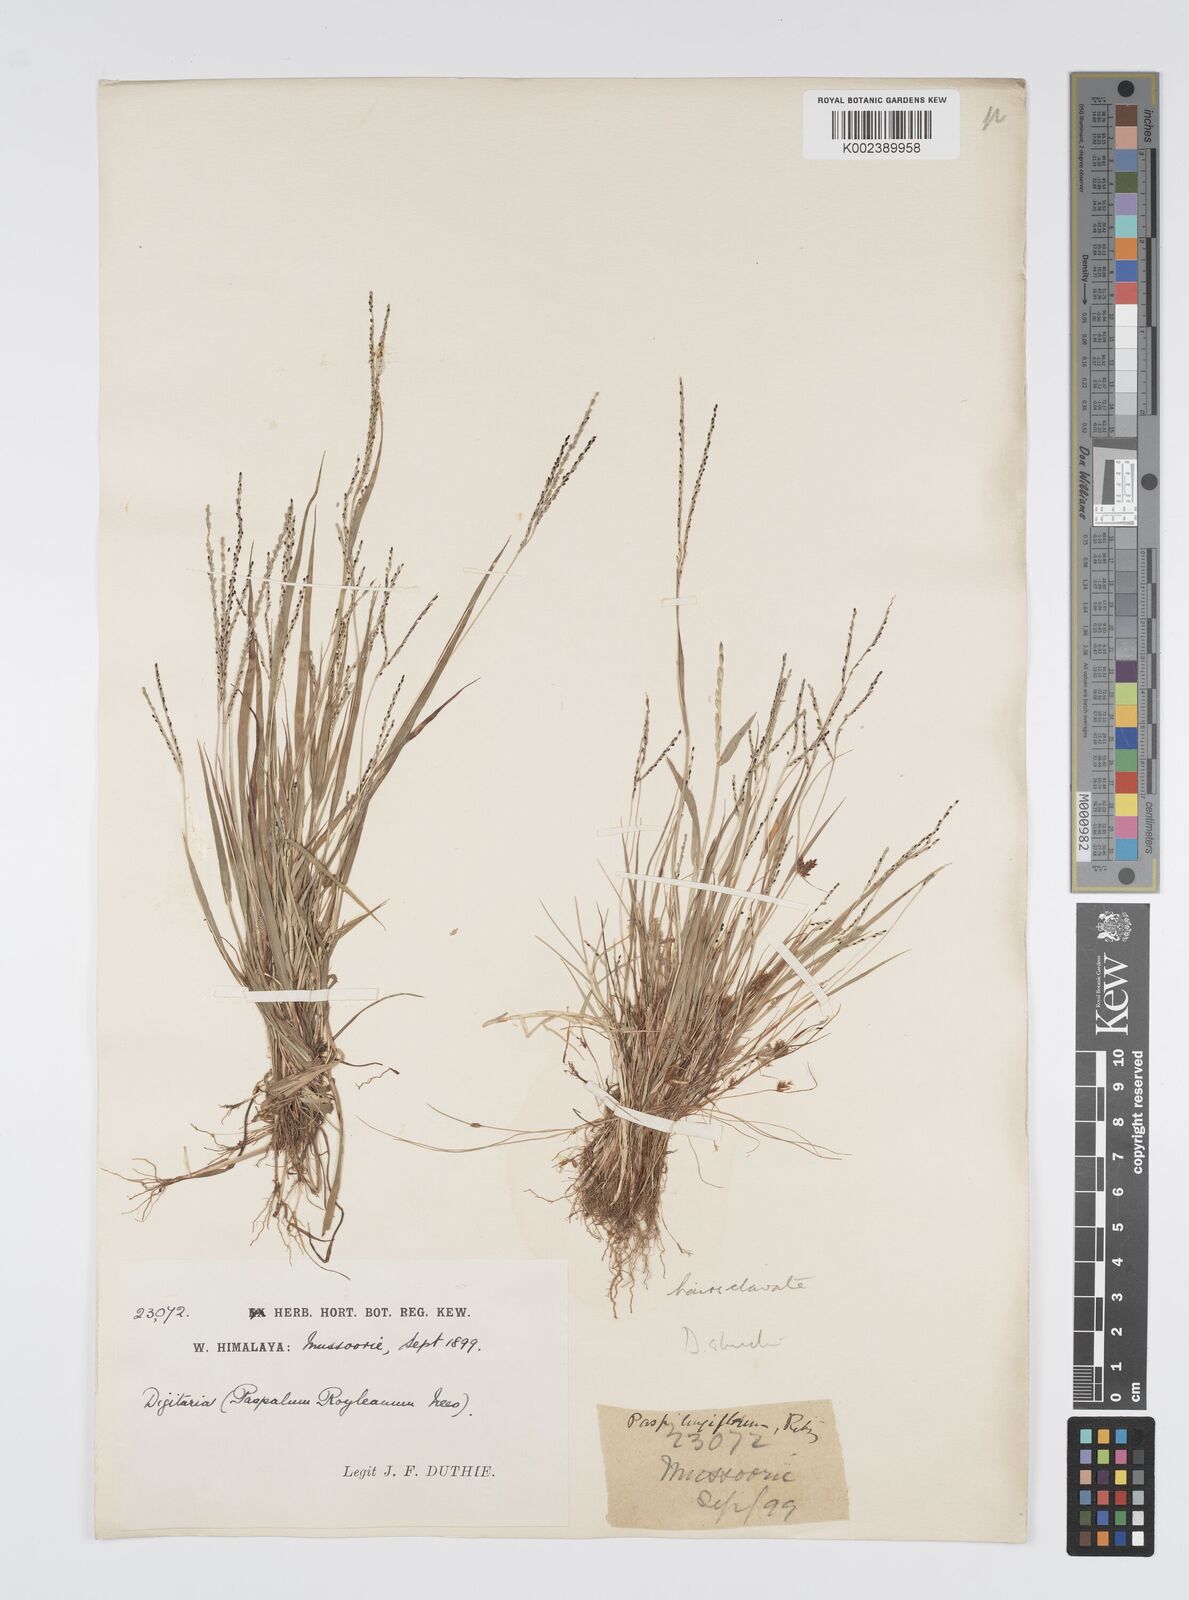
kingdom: Plantae
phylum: Tracheophyta
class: Liliopsida
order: Poales
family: Poaceae
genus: Digitaria
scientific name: Digitaria stricta
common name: Crabgrass
